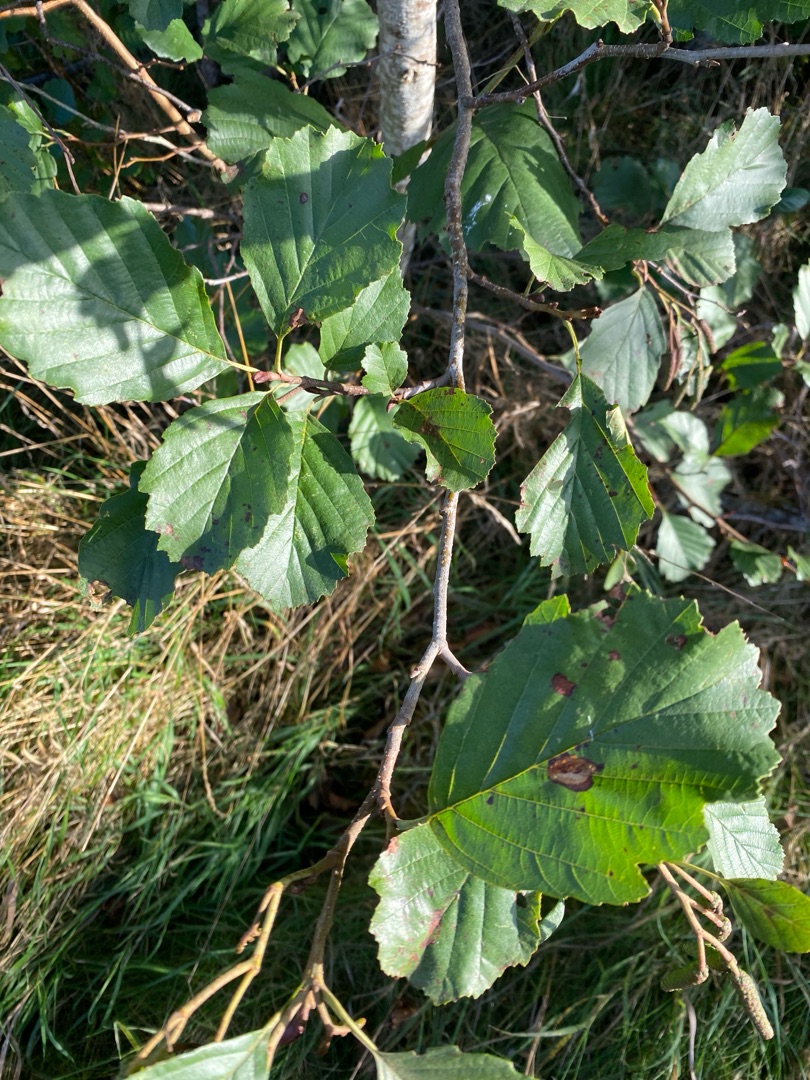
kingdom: Plantae
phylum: Tracheophyta
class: Magnoliopsida
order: Fagales
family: Betulaceae
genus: Alnus
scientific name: Alnus glutinosa
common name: Rød-el
